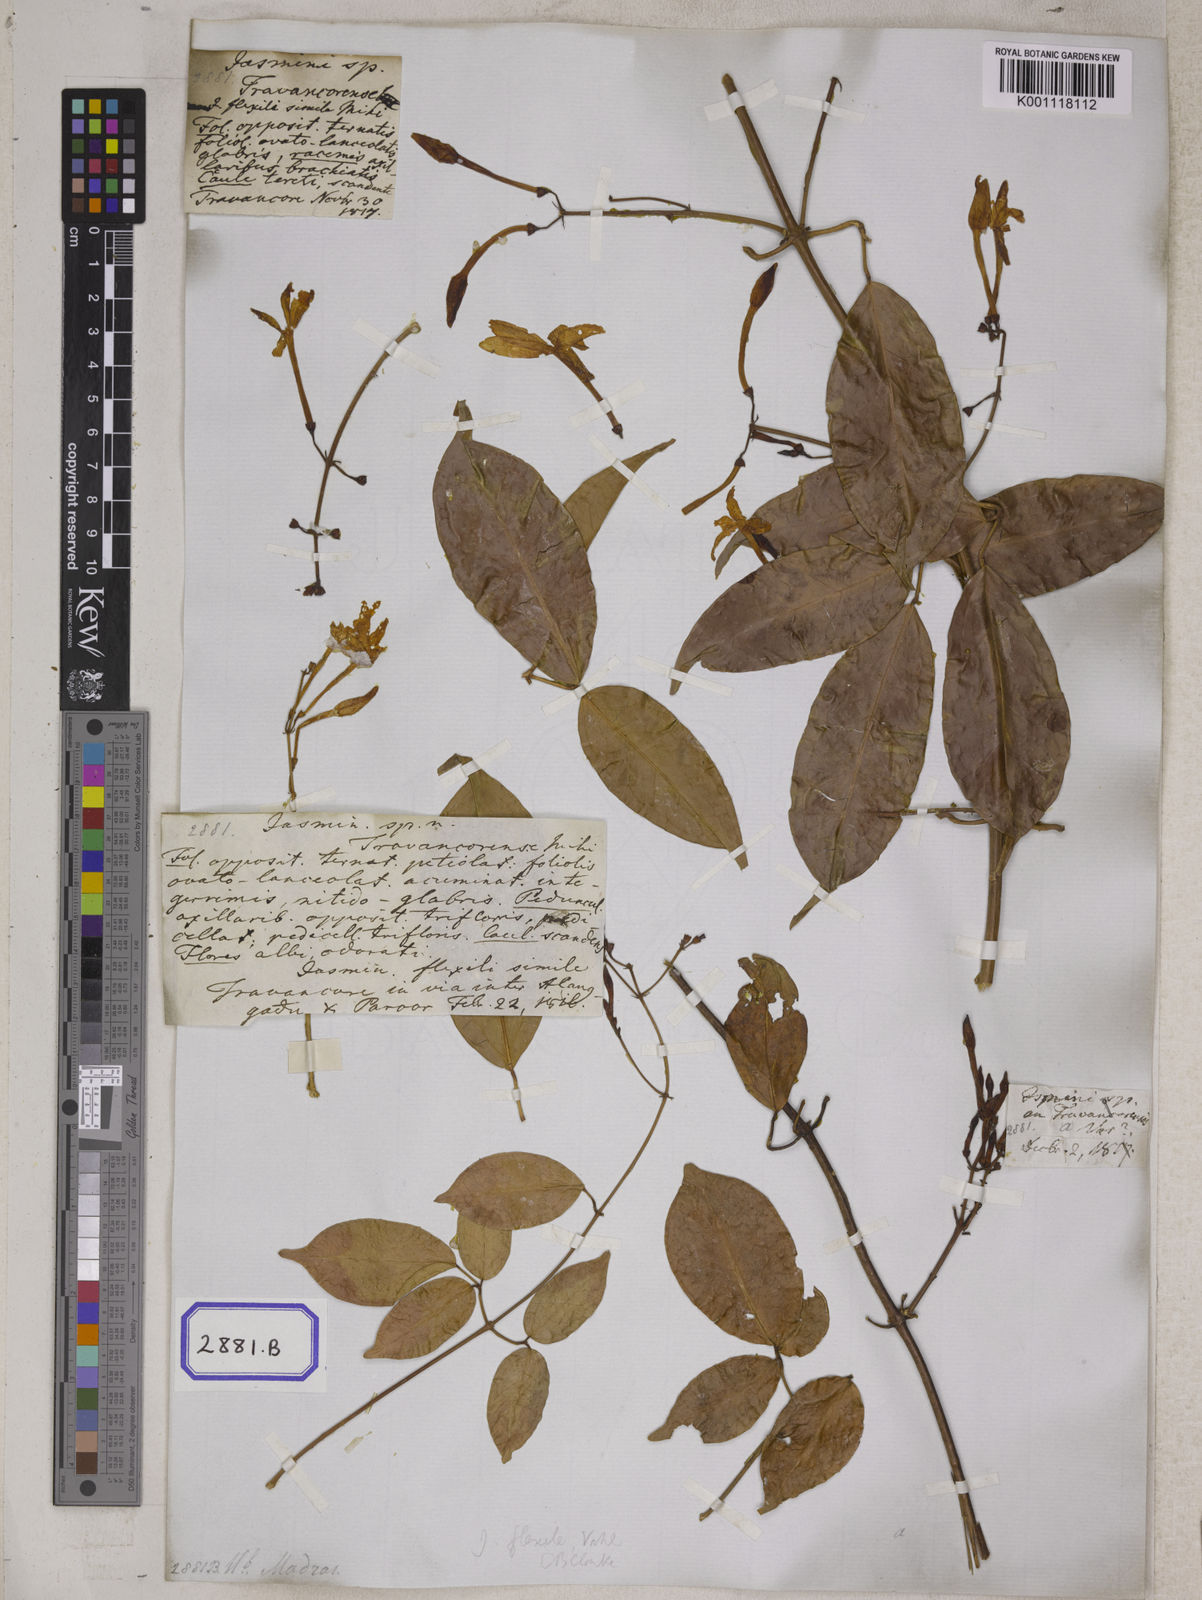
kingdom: Plantae
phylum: Tracheophyta
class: Magnoliopsida
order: Lamiales
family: Oleaceae
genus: Jasminum
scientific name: Jasminum flexile
